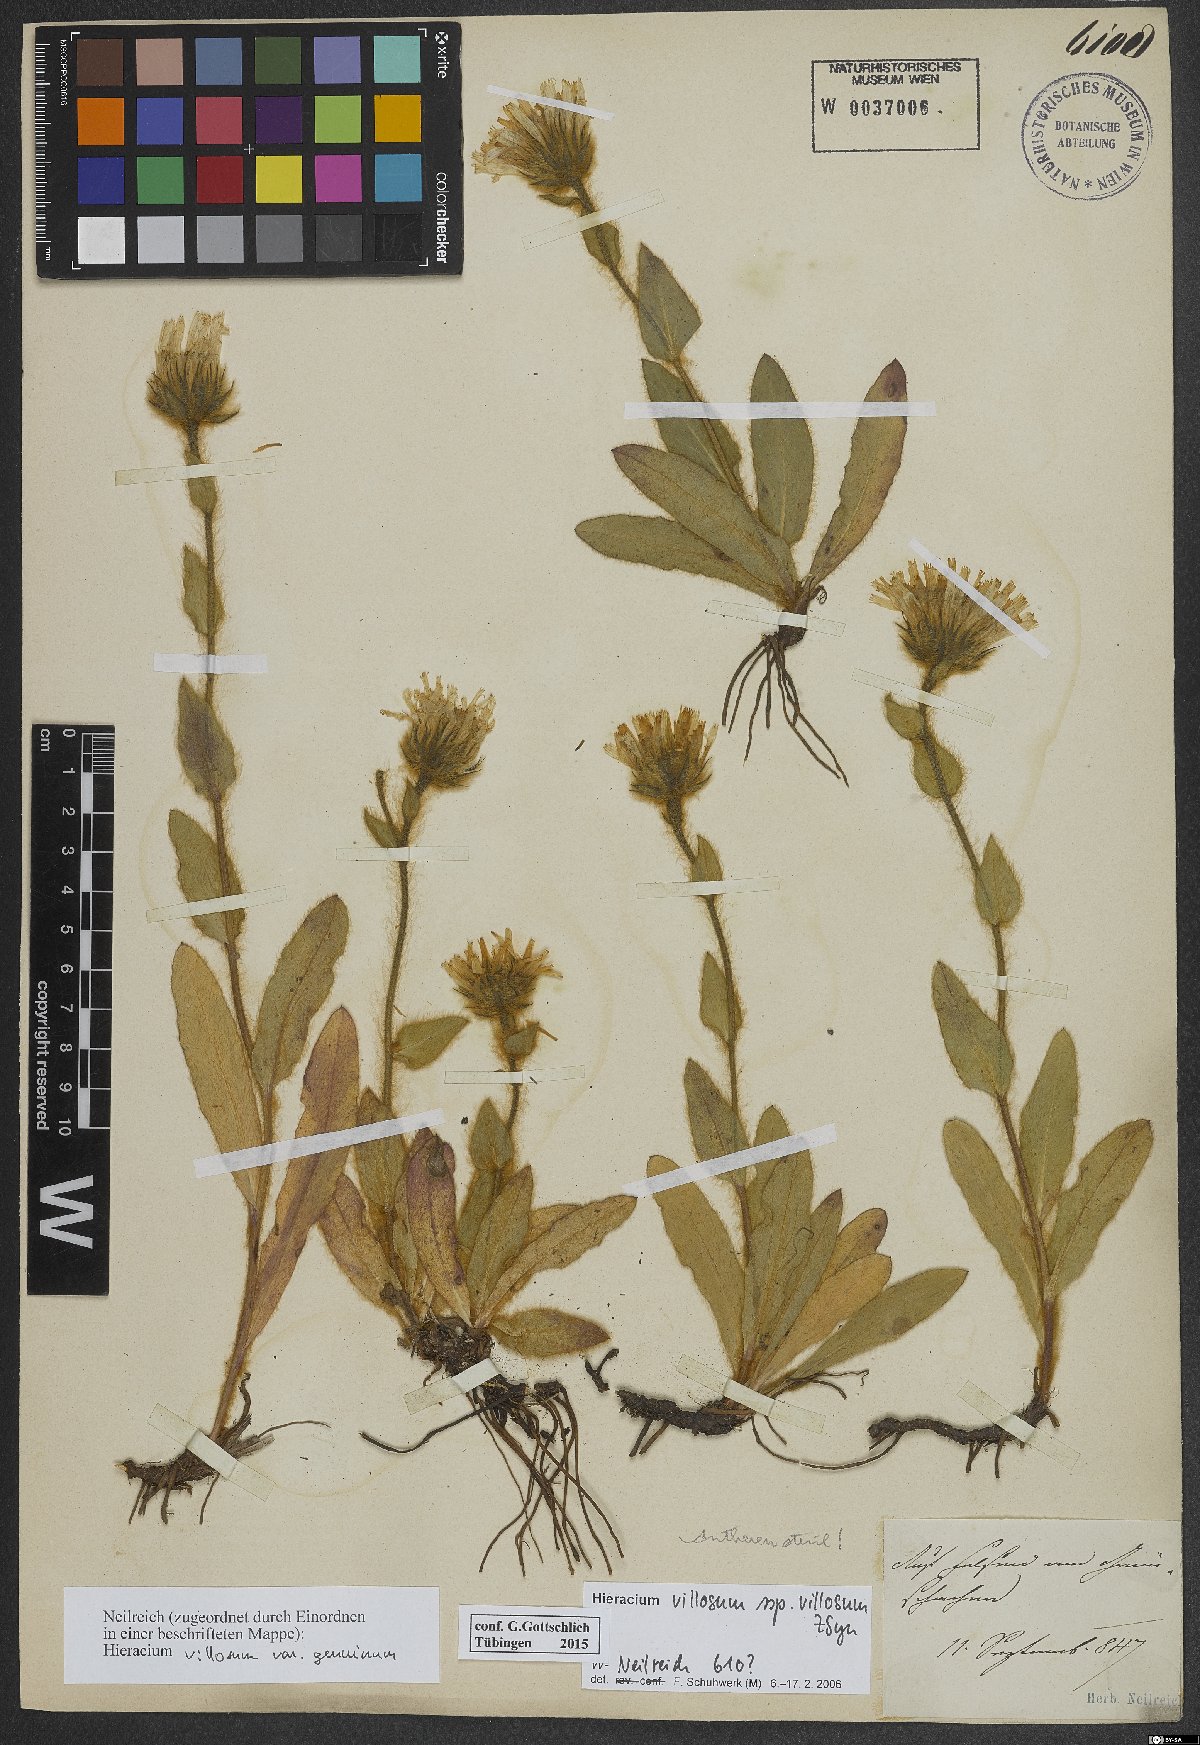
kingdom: Plantae
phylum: Tracheophyta
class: Magnoliopsida
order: Asterales
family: Asteraceae
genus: Hieracium
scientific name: Hieracium villosum
